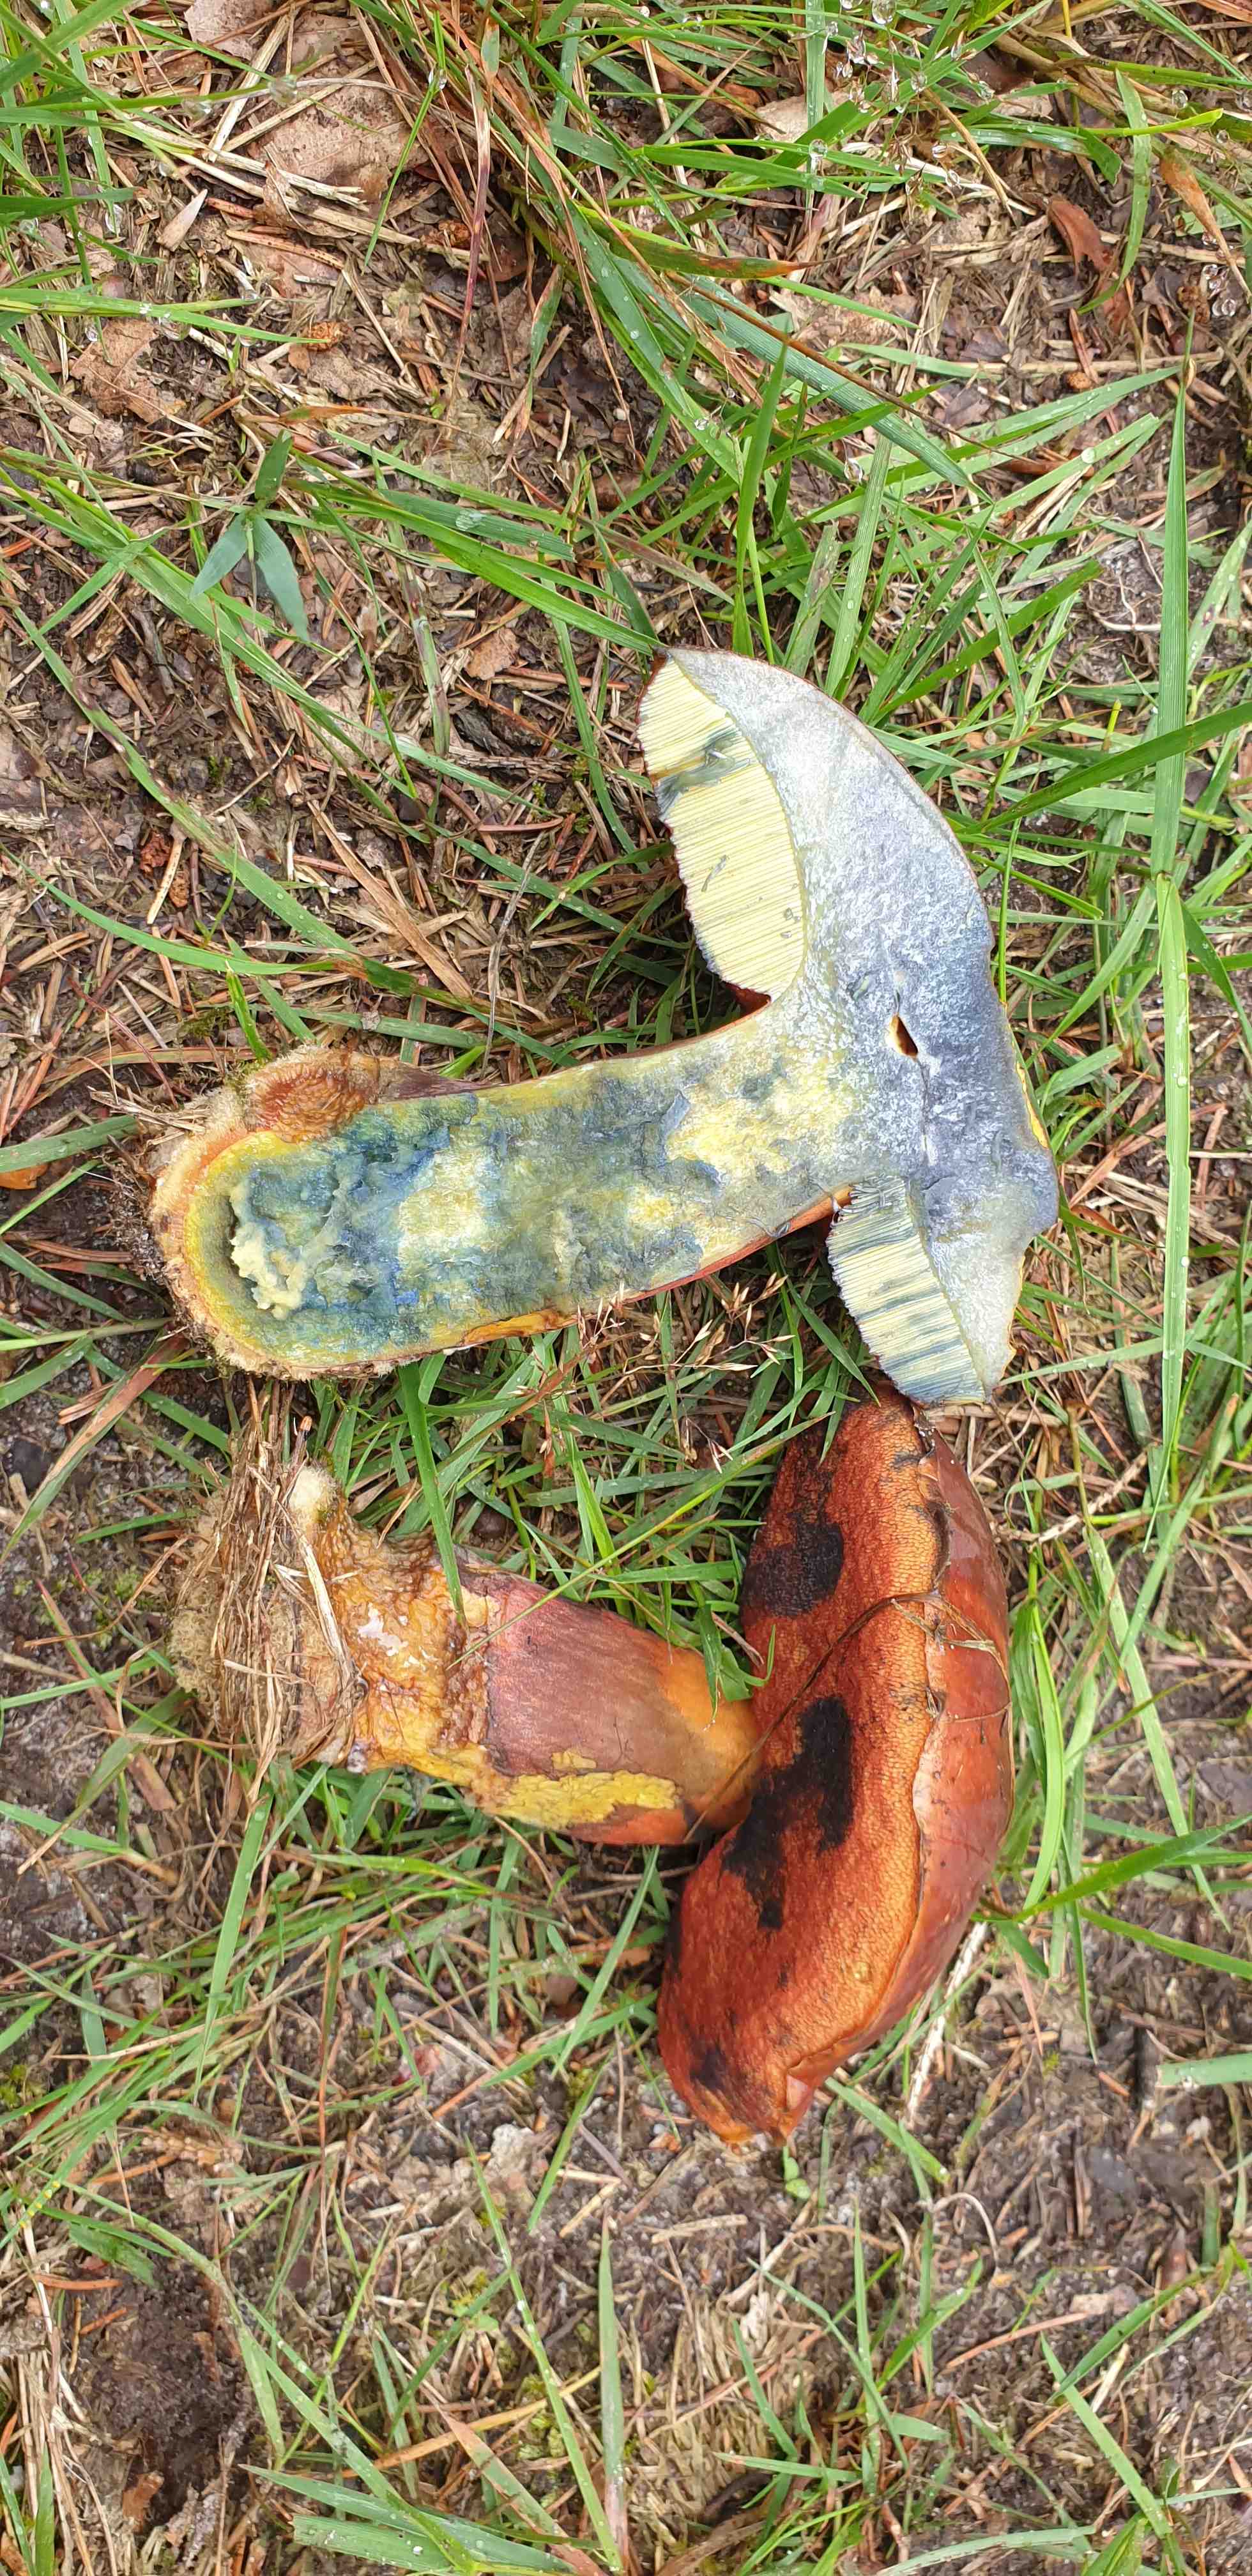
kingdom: Fungi
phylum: Basidiomycota
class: Agaricomycetes
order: Boletales
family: Boletaceae
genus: Neoboletus
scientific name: Neoboletus erythropus
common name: punktstokket indigorørhat
